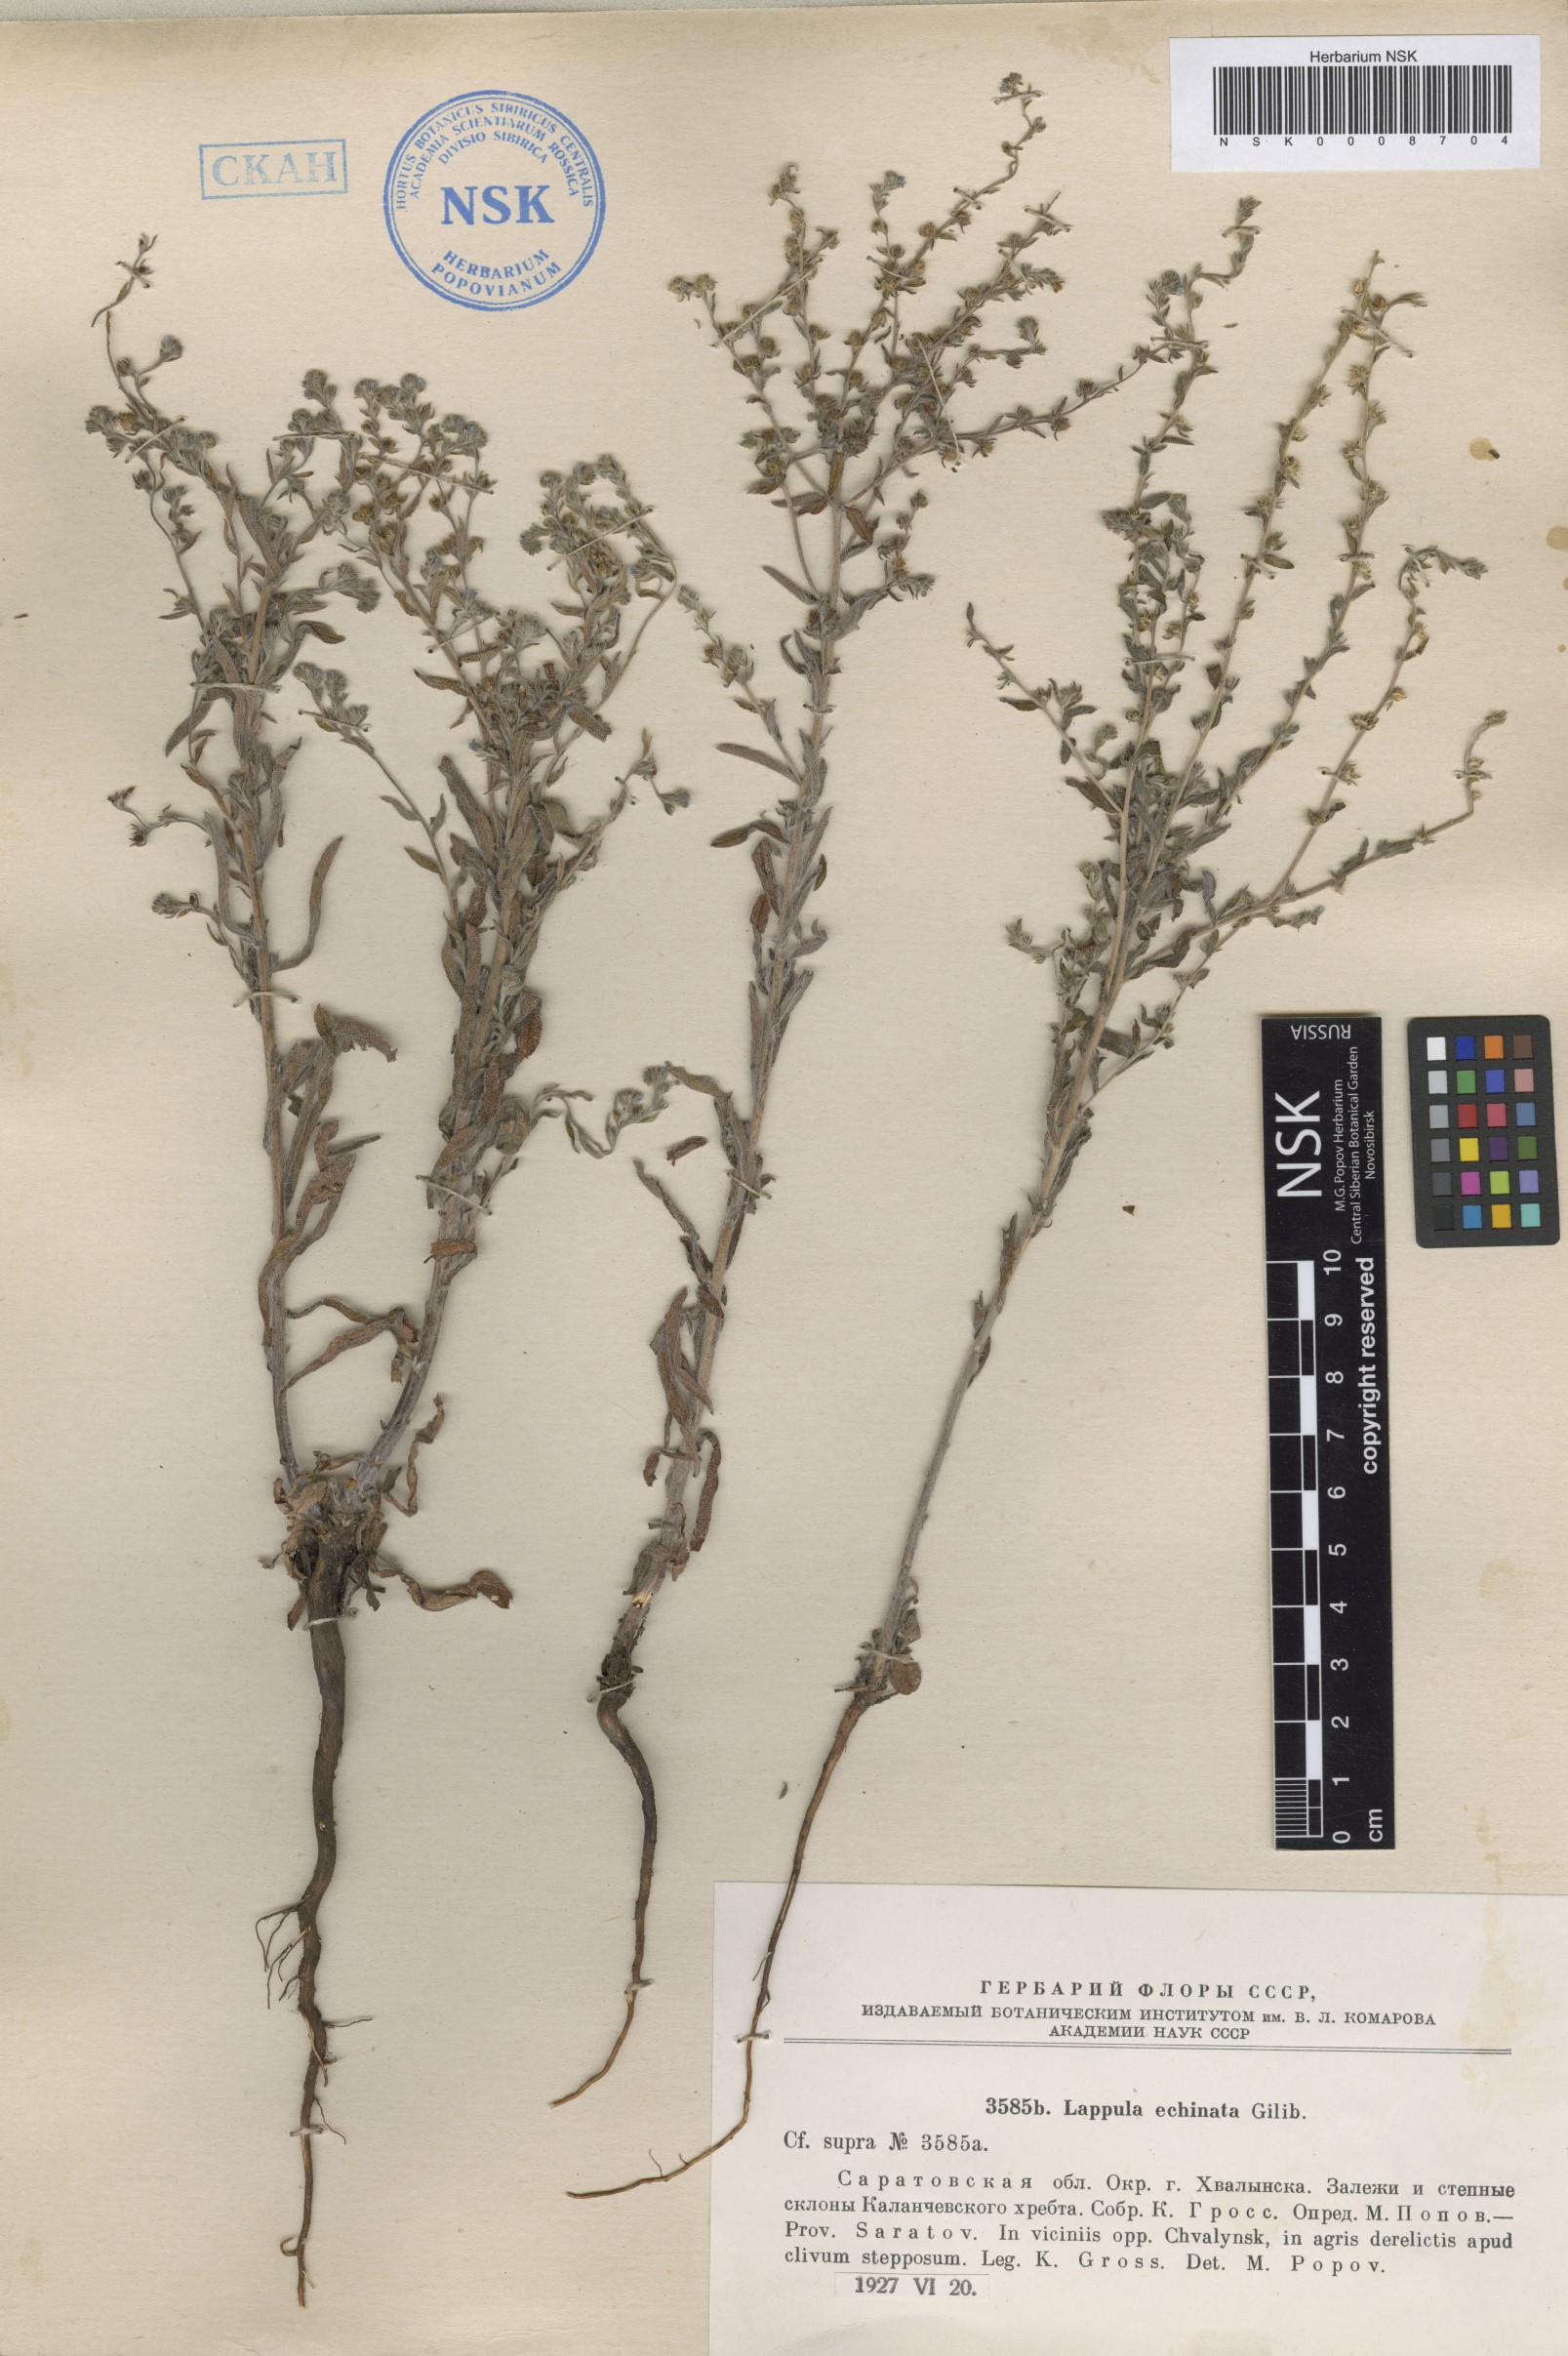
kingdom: Plantae
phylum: Tracheophyta
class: Magnoliopsida
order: Boraginales
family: Boraginaceae
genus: Lappula
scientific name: Lappula squarrosa
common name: European stickseed
